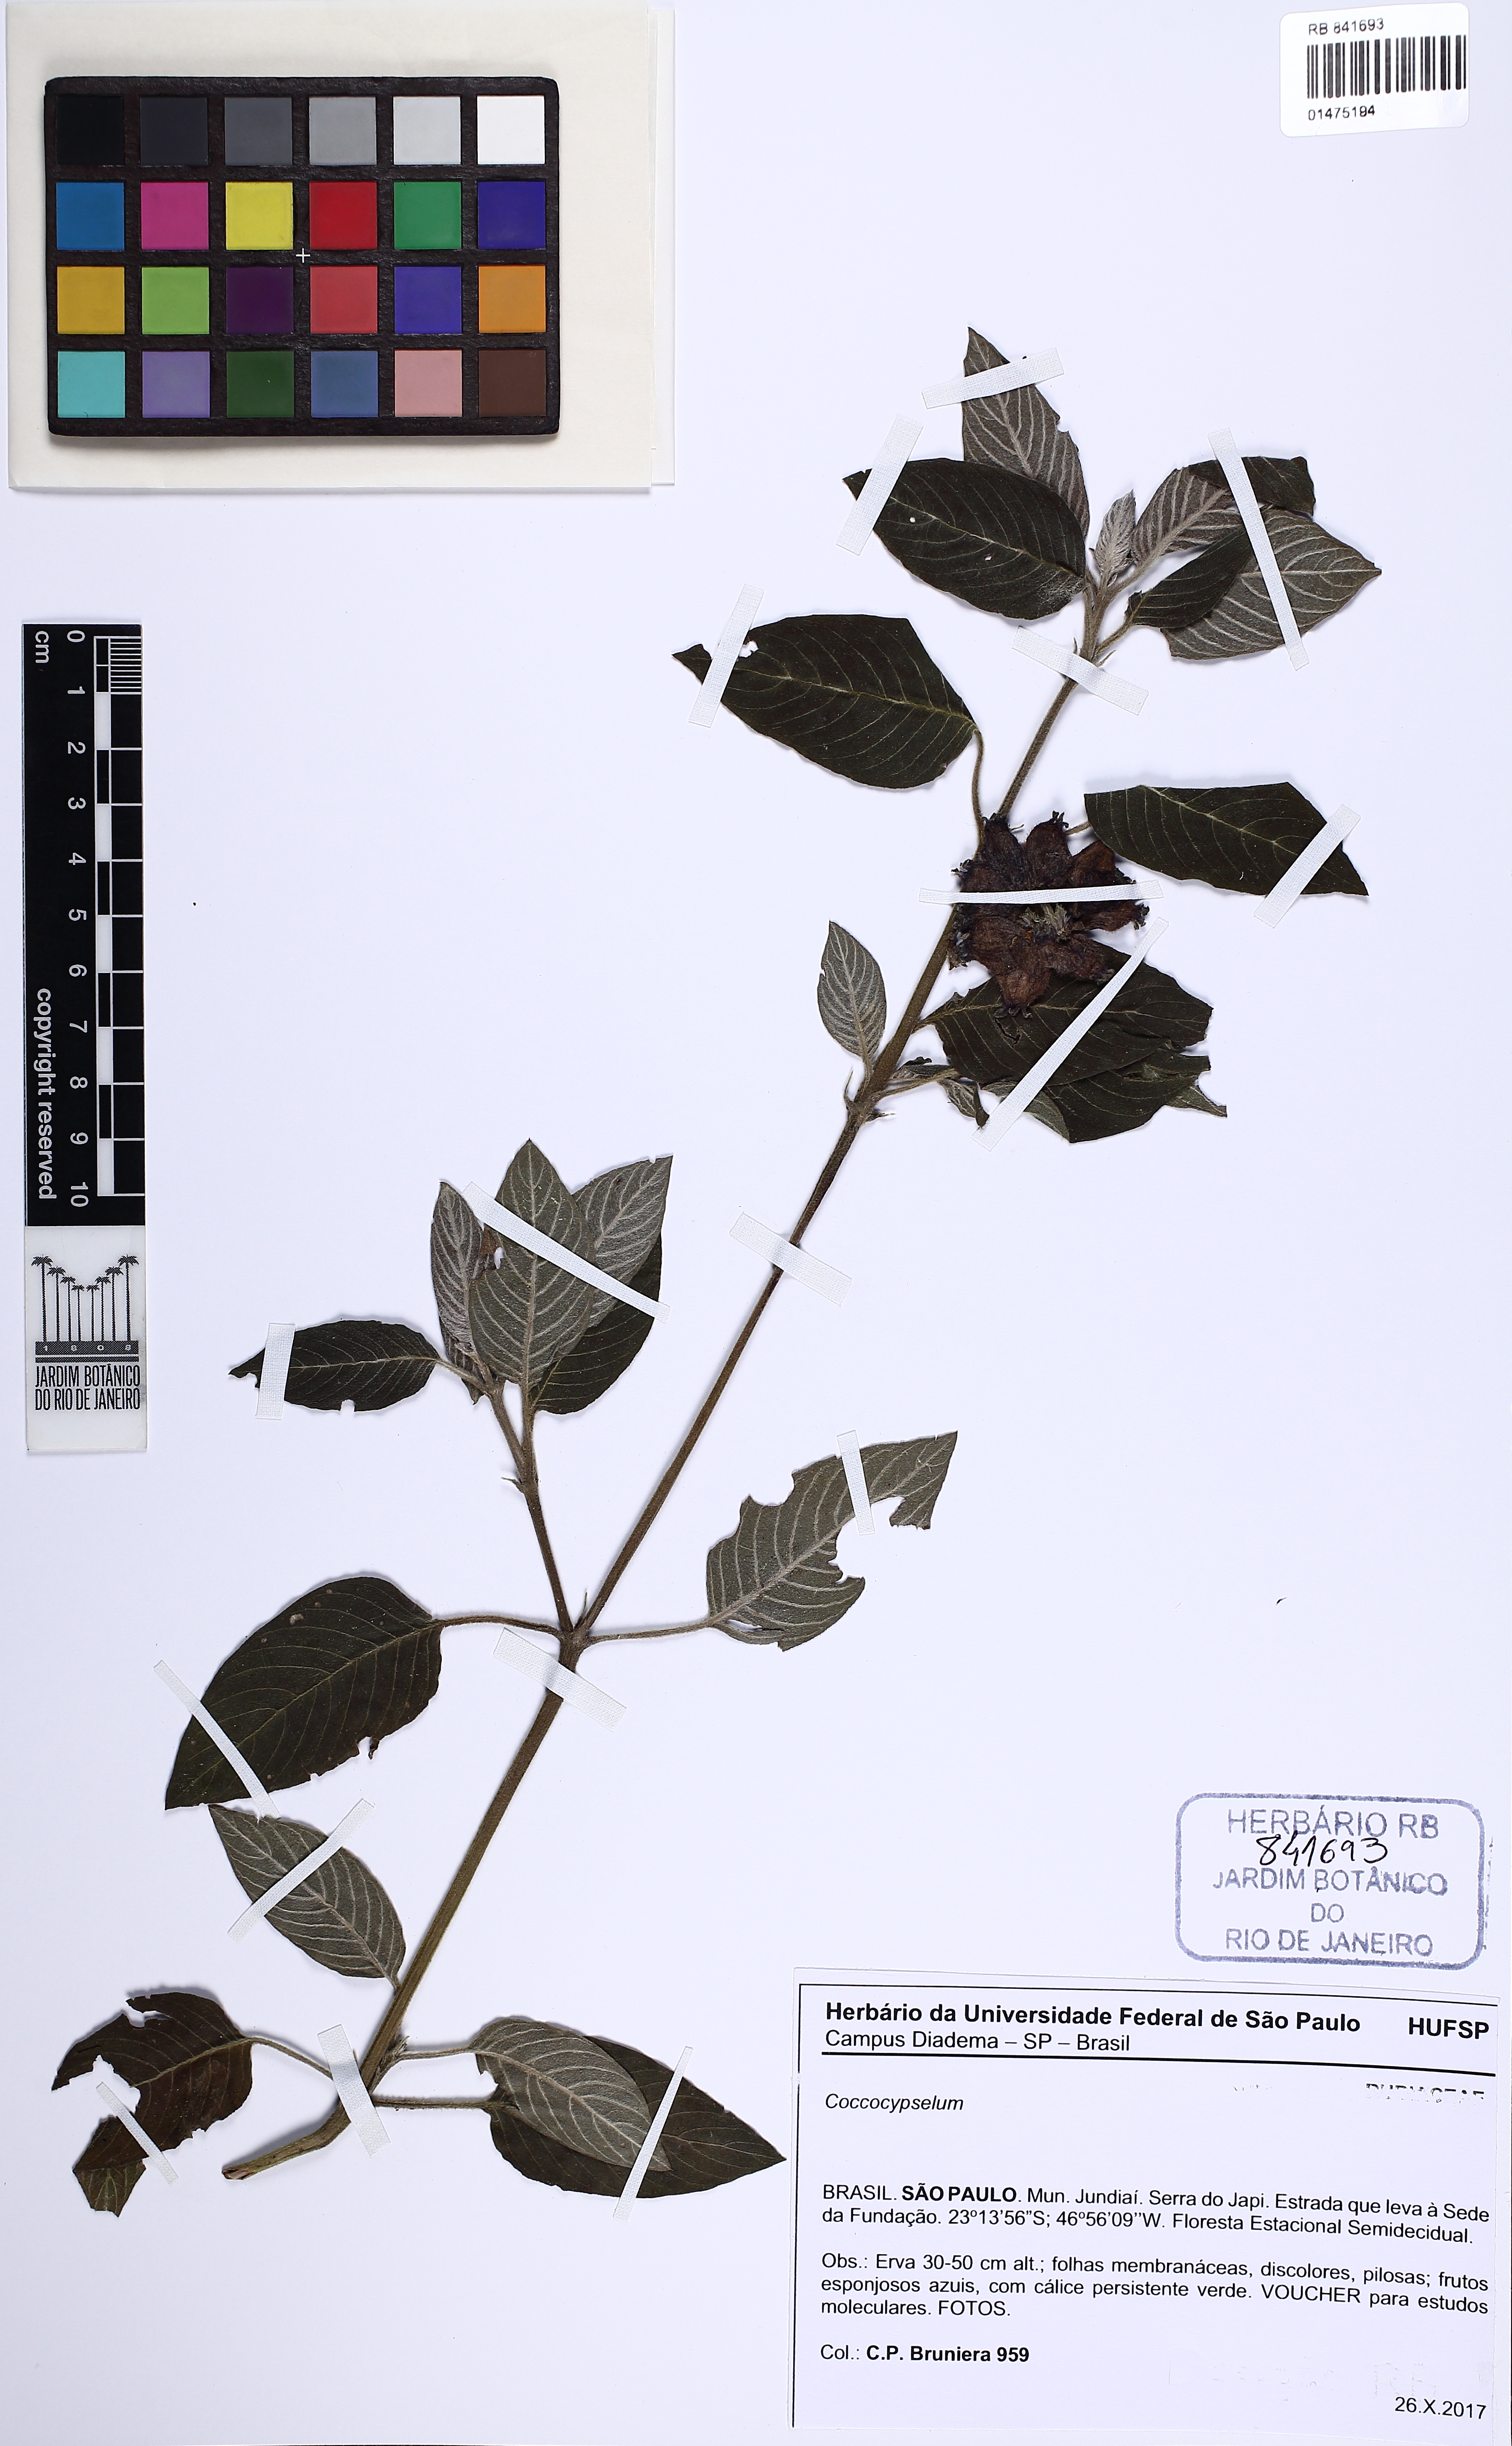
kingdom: Plantae
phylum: Tracheophyta
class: Magnoliopsida
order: Gentianales
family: Rubiaceae
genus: Coccocypselum
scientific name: Coccocypselum
